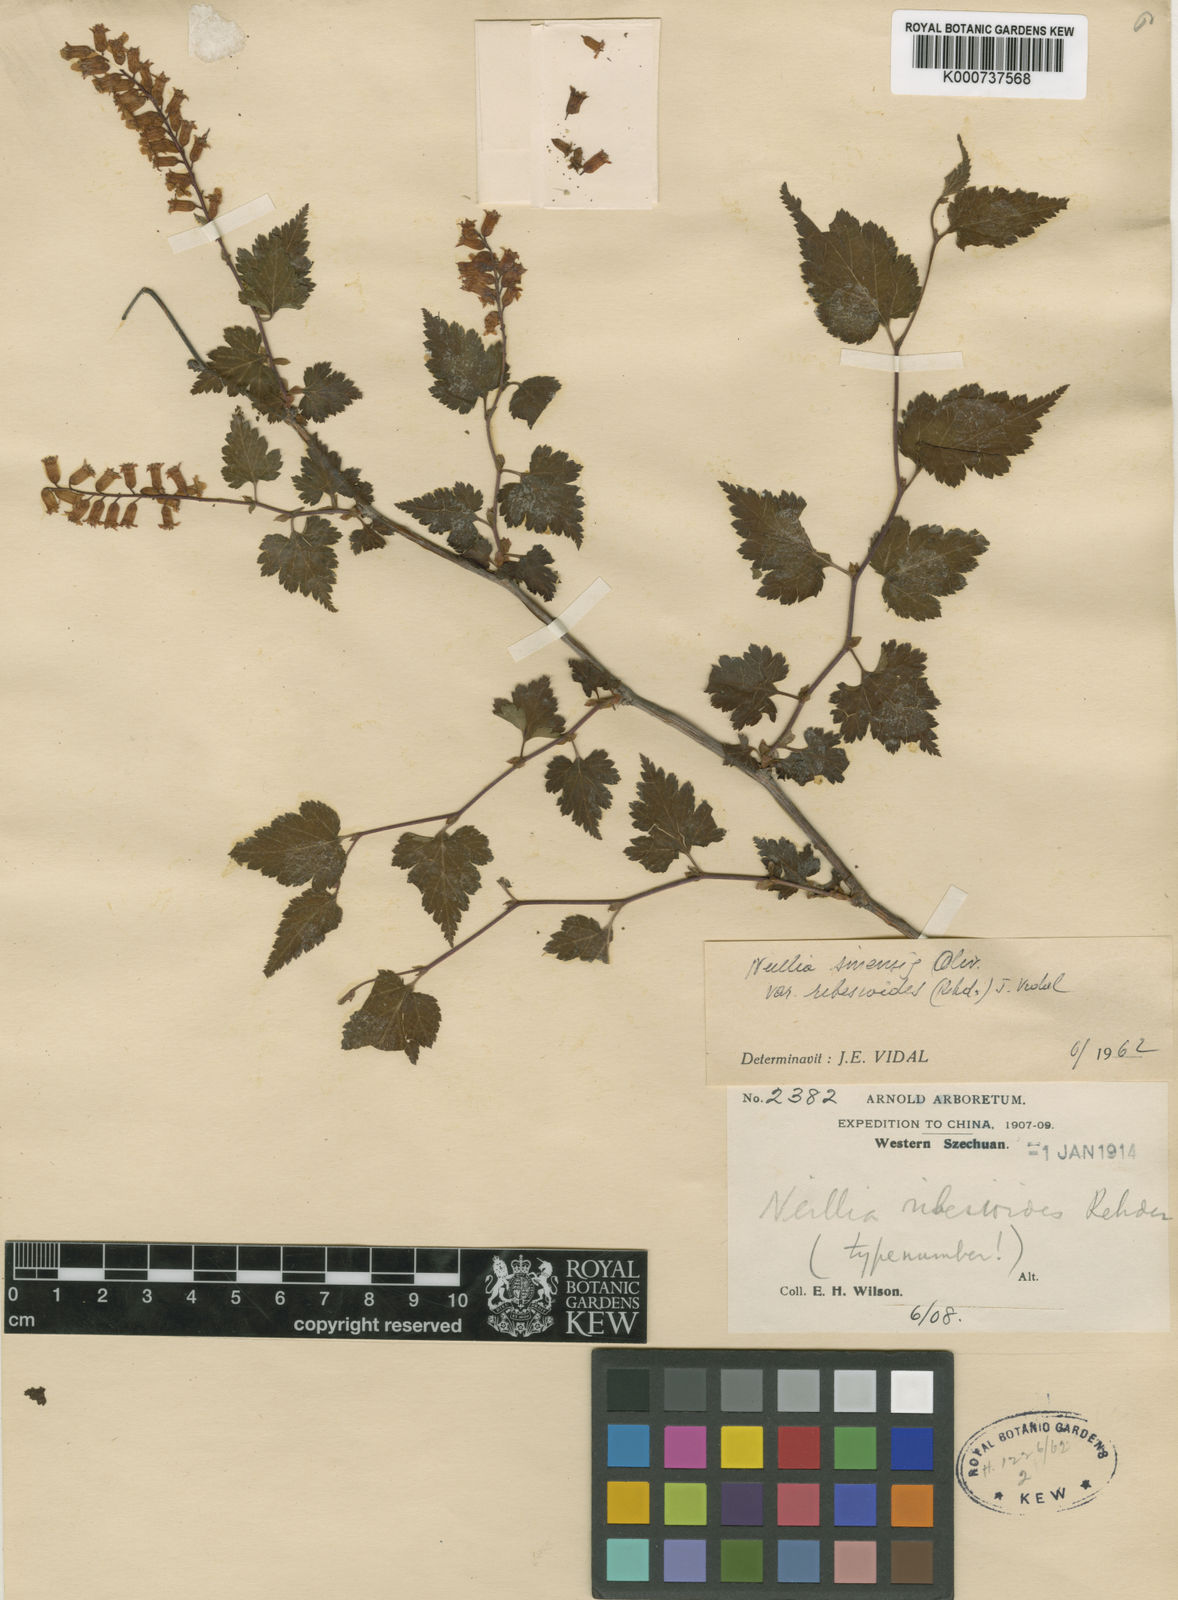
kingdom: Plantae
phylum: Tracheophyta
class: Magnoliopsida
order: Rosales
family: Rosaceae
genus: Neillia
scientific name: Neillia sinensis
